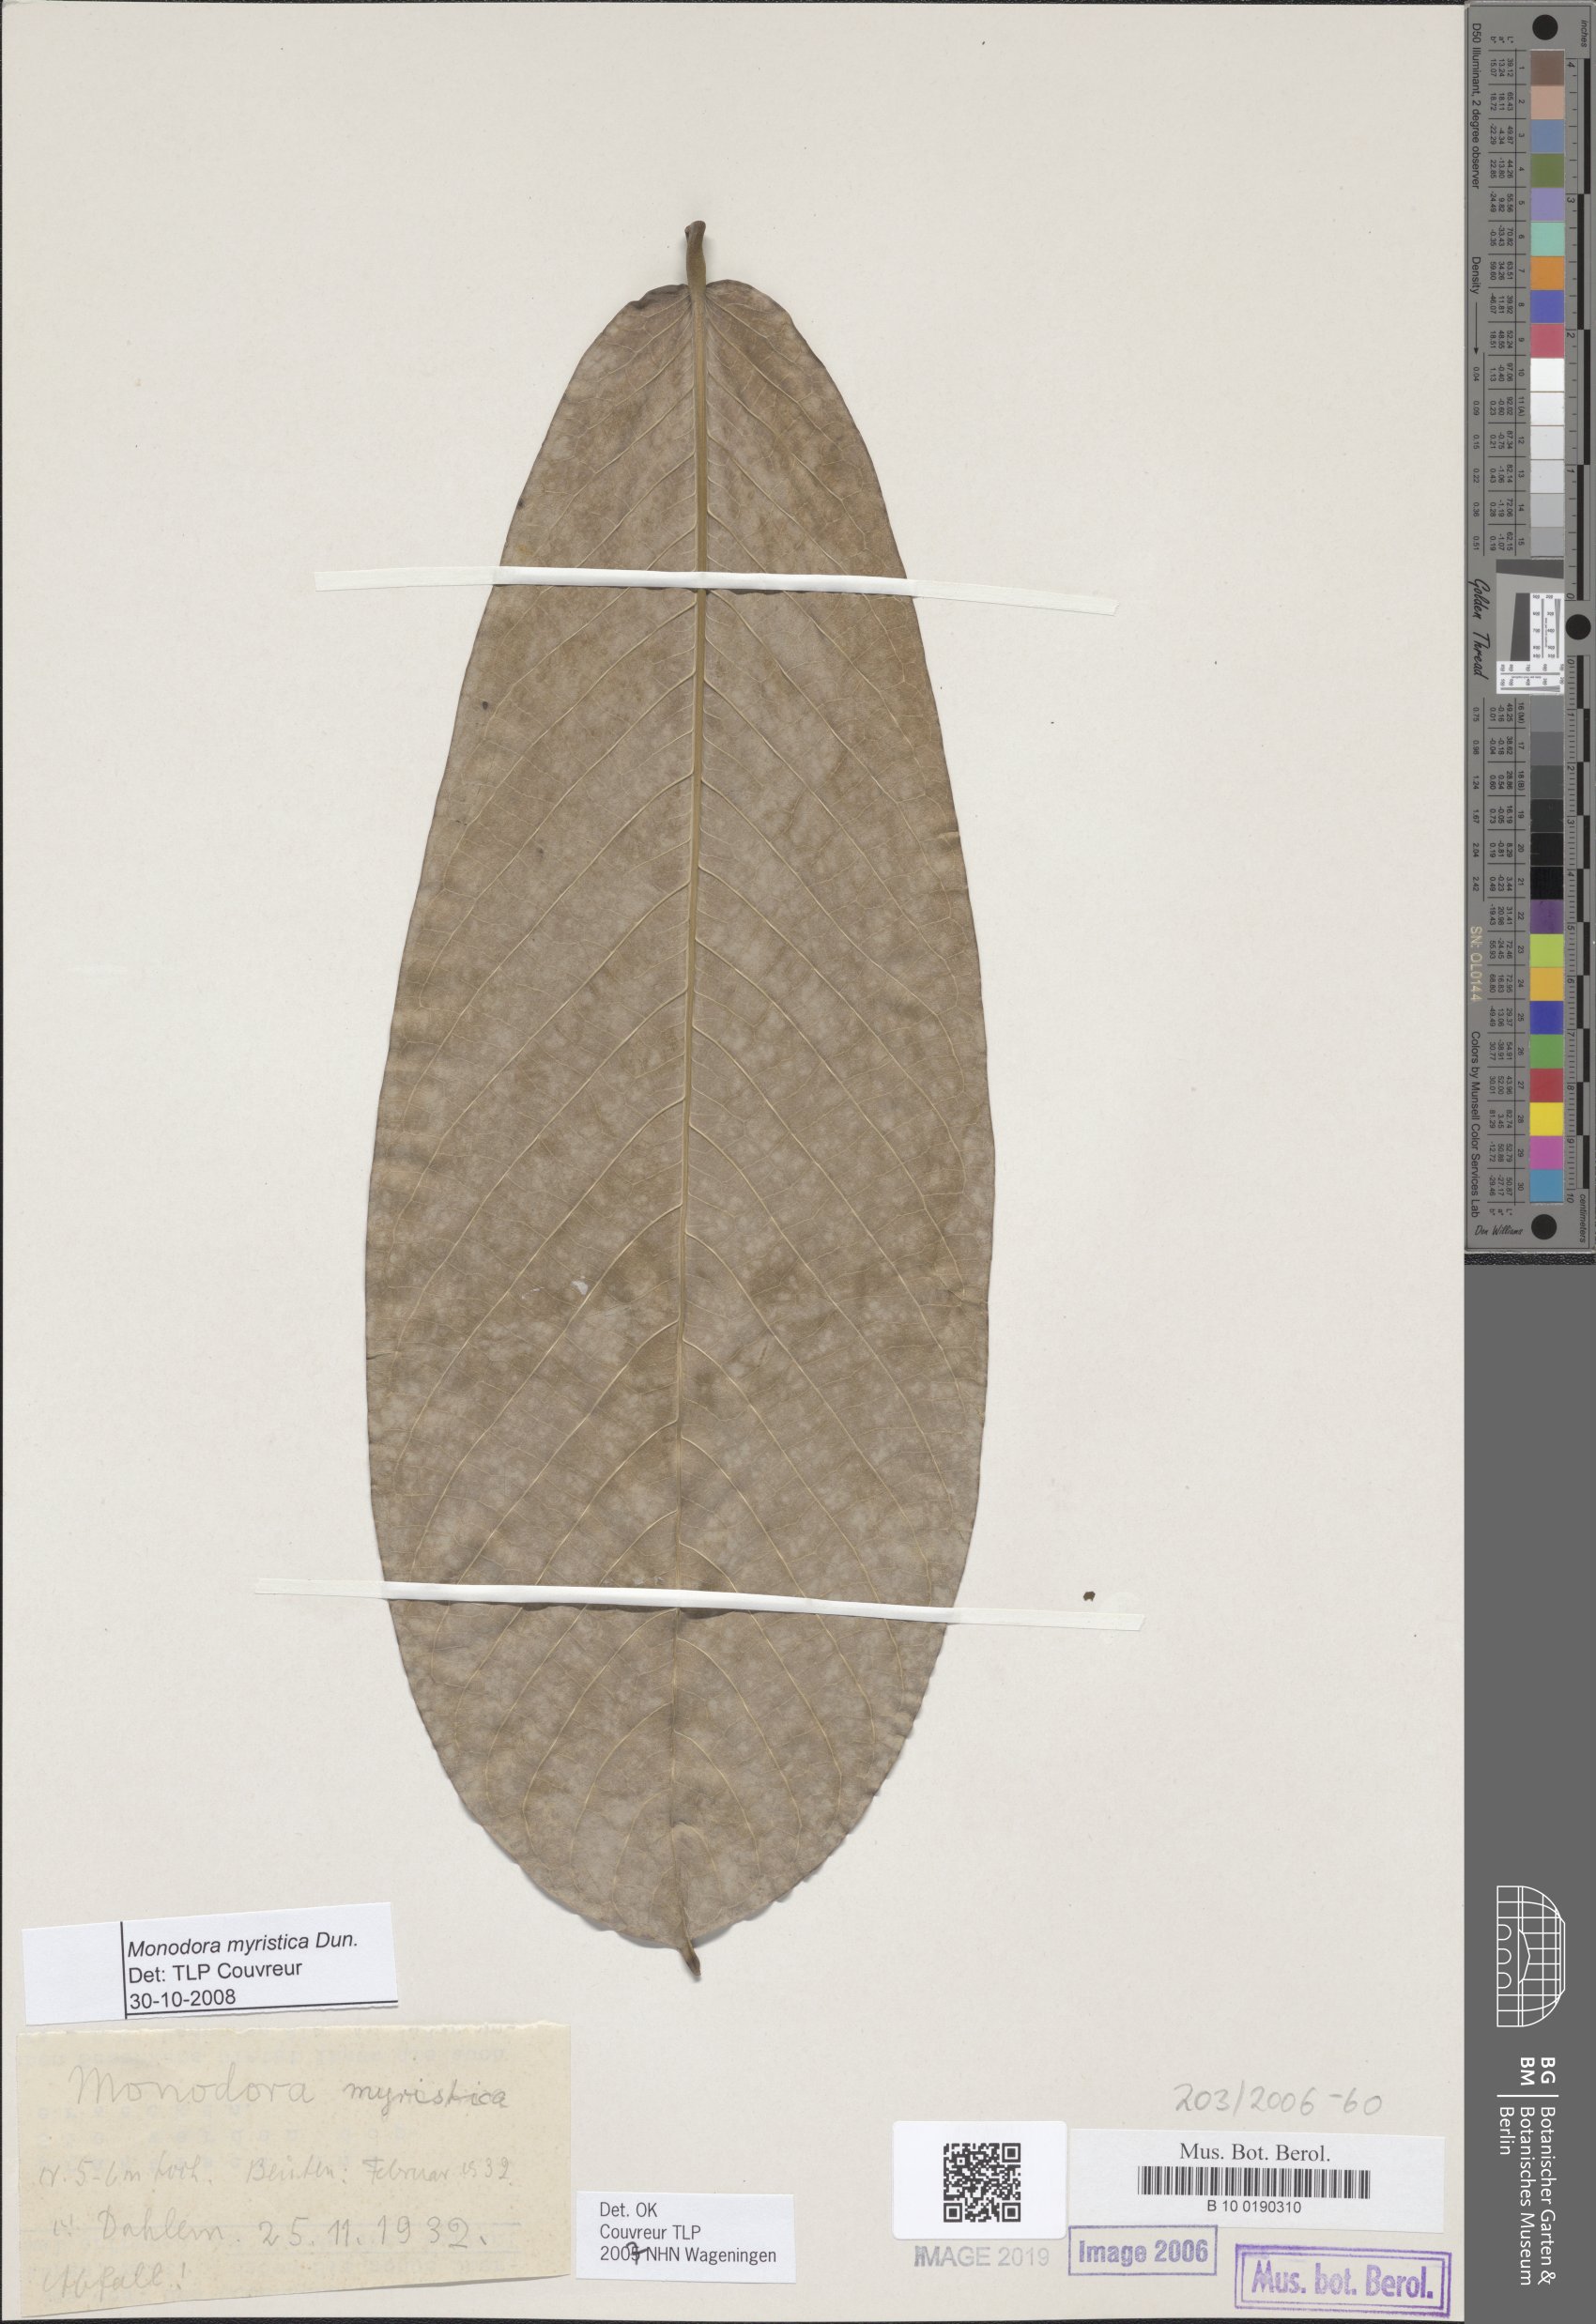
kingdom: Plantae
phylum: Tracheophyta
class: Magnoliopsida
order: Magnoliales
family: Annonaceae
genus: Monodora
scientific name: Monodora myristica
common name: African nutmeg
